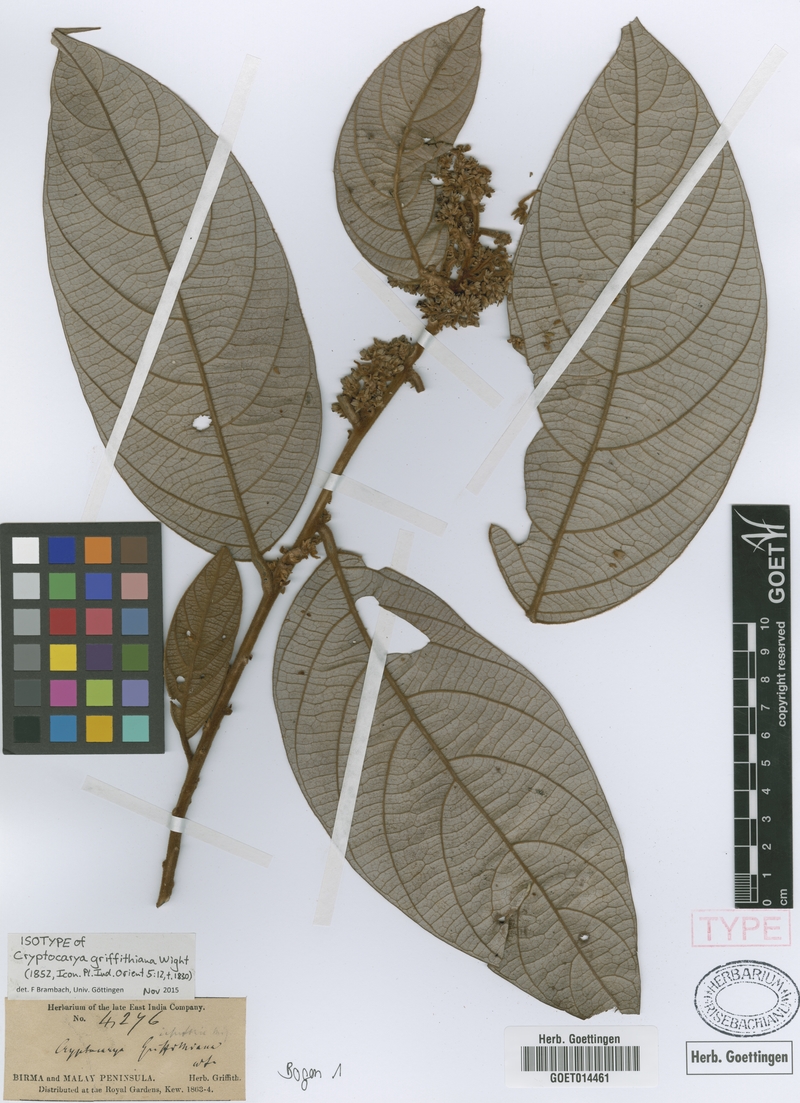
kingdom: Plantae
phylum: Tracheophyta
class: Magnoliopsida
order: Laurales
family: Lauraceae
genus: Cryptocarya
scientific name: Cryptocarya griffithiana
